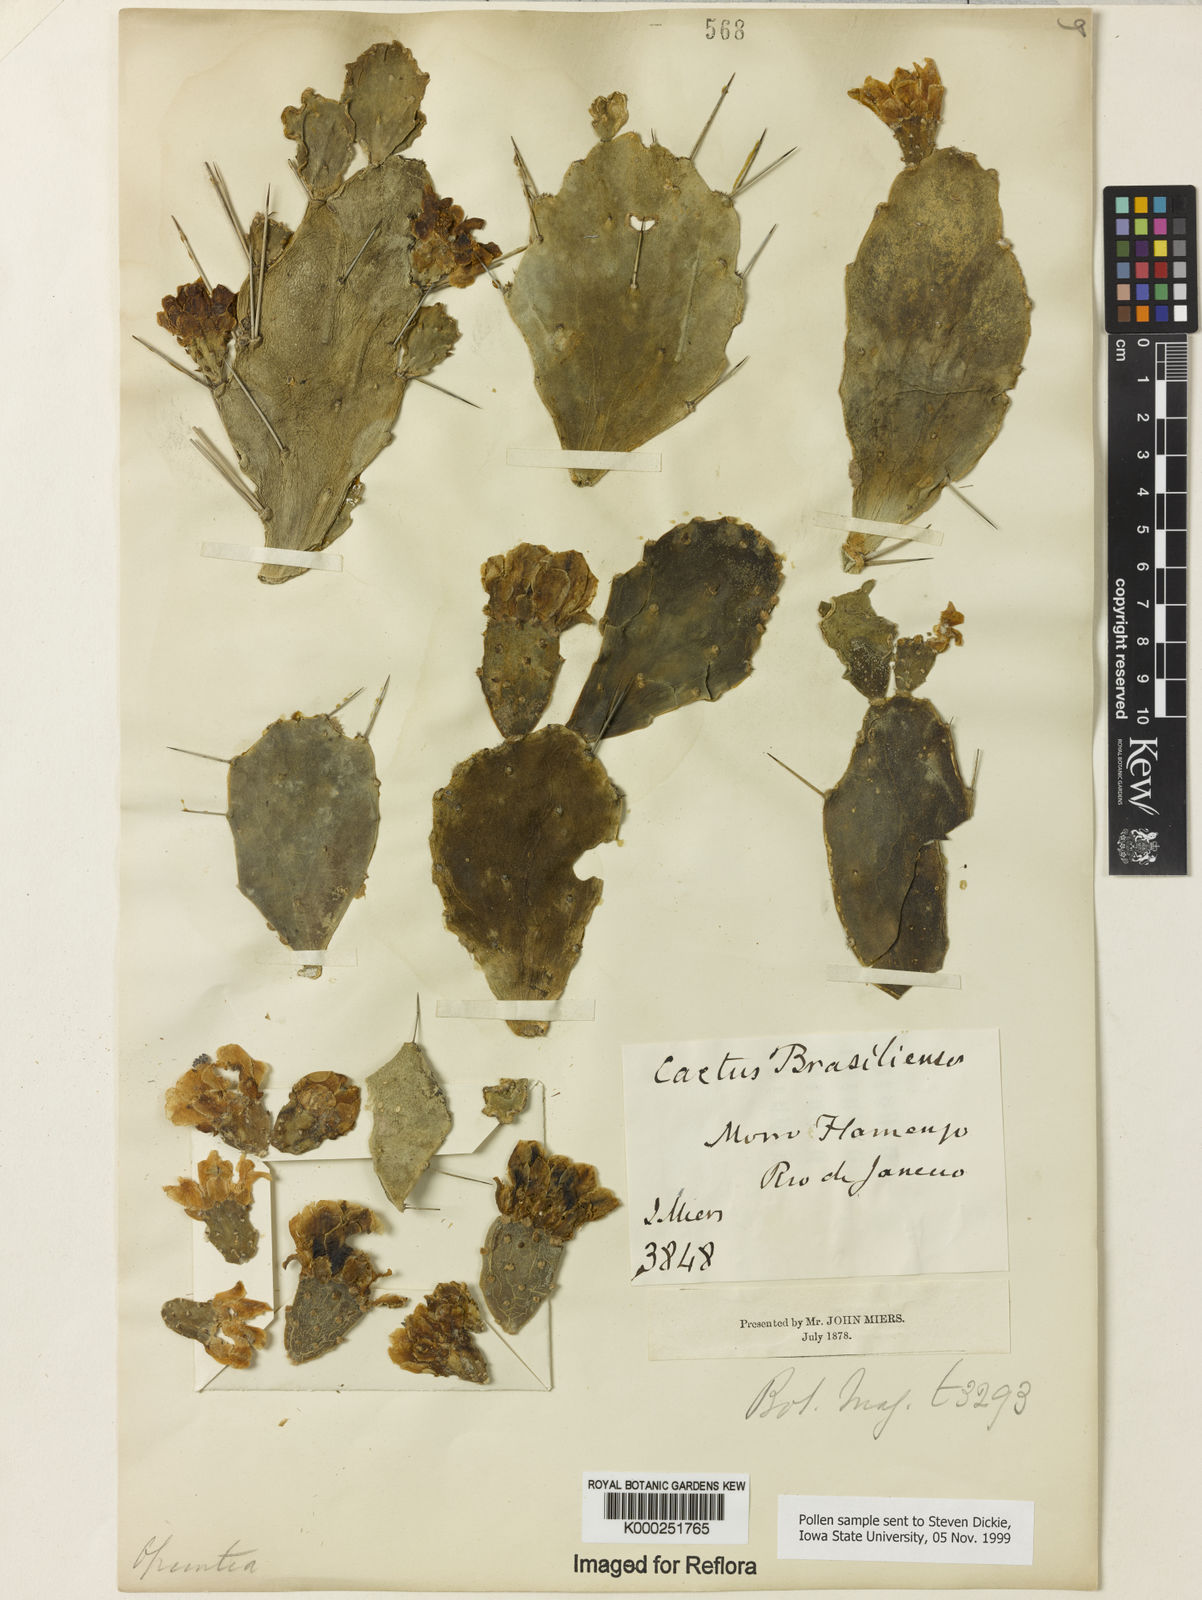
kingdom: Plantae
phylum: Tracheophyta
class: Magnoliopsida
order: Caryophyllales
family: Cactaceae
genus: Brasiliopuntia
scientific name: Brasiliopuntia brasiliensis
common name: Brazilian pricklypear
